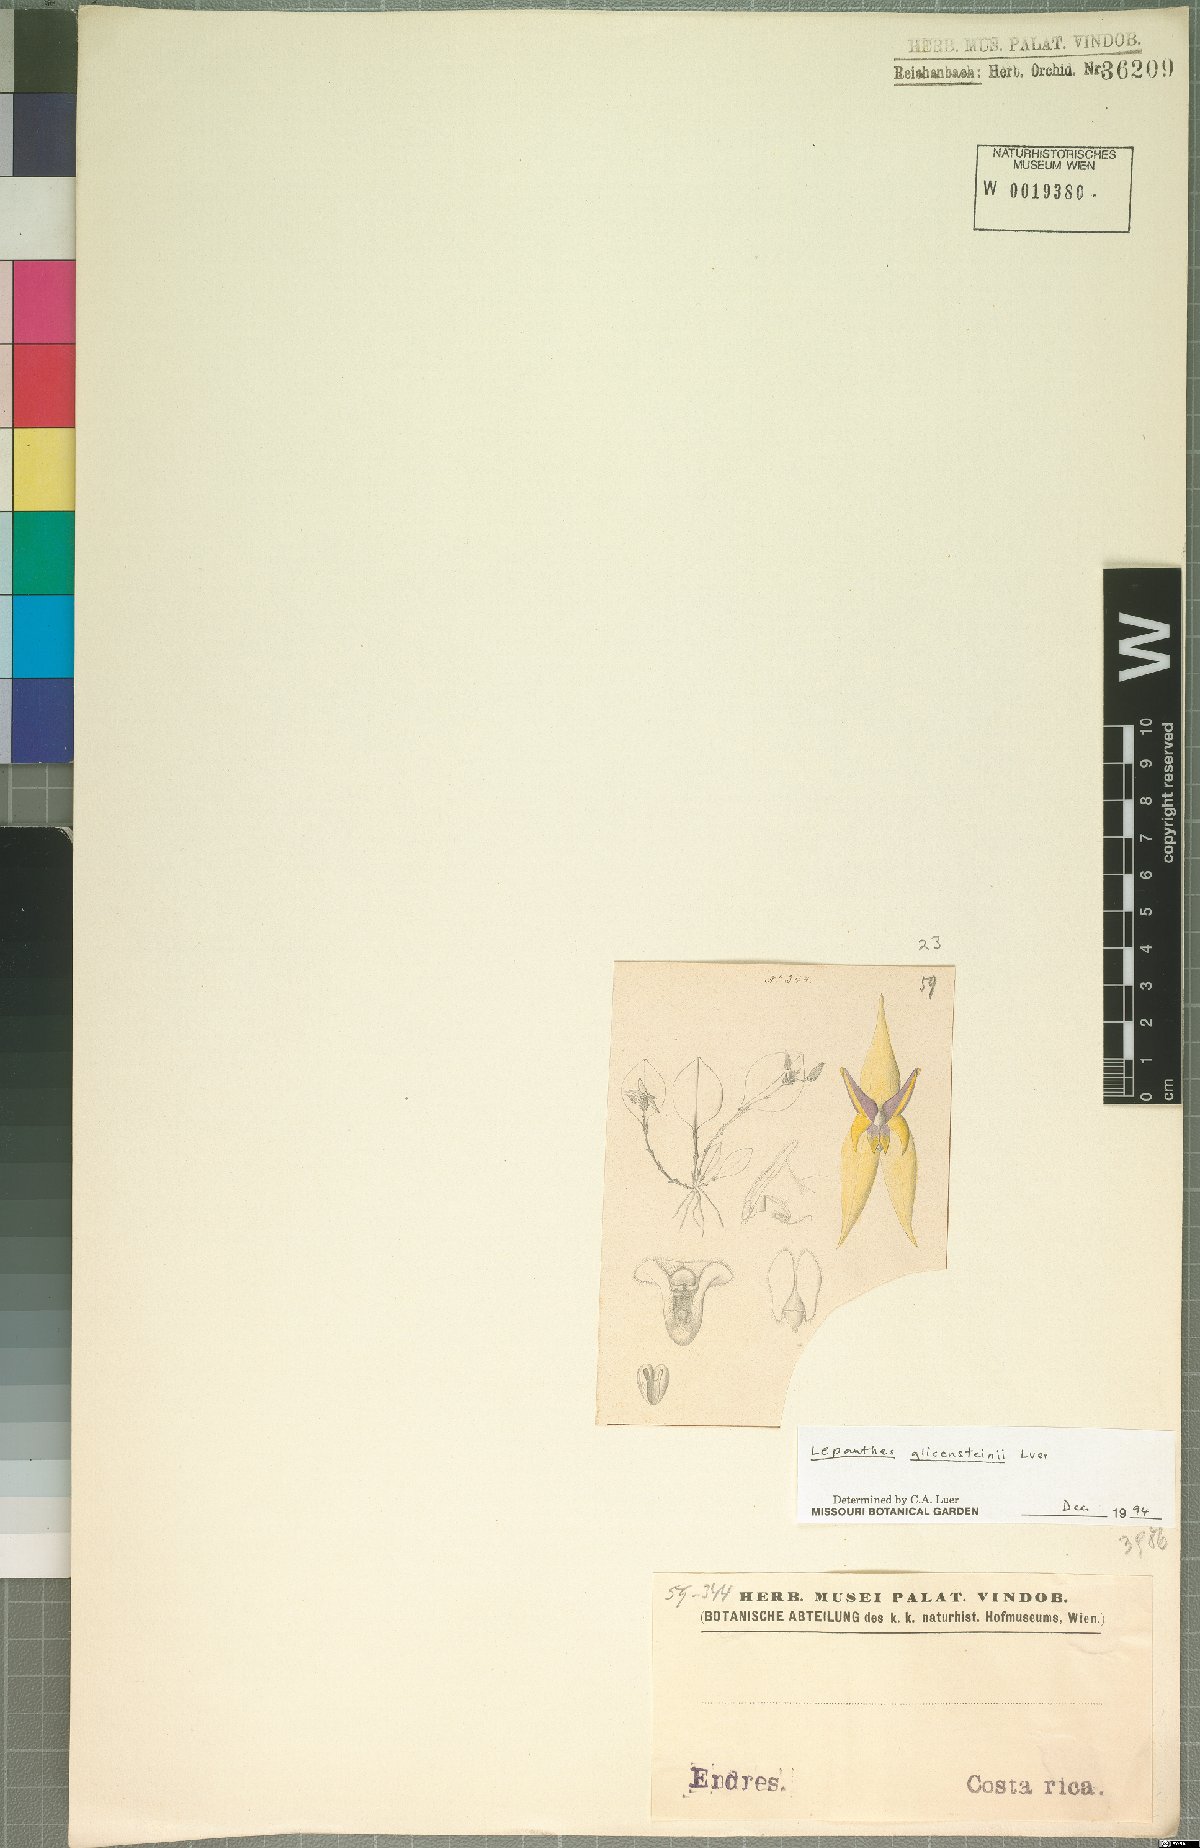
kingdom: Plantae
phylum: Tracheophyta
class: Liliopsida
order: Asparagales
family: Orchidaceae
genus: Lepanthes
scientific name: Lepanthes glicensteinii
